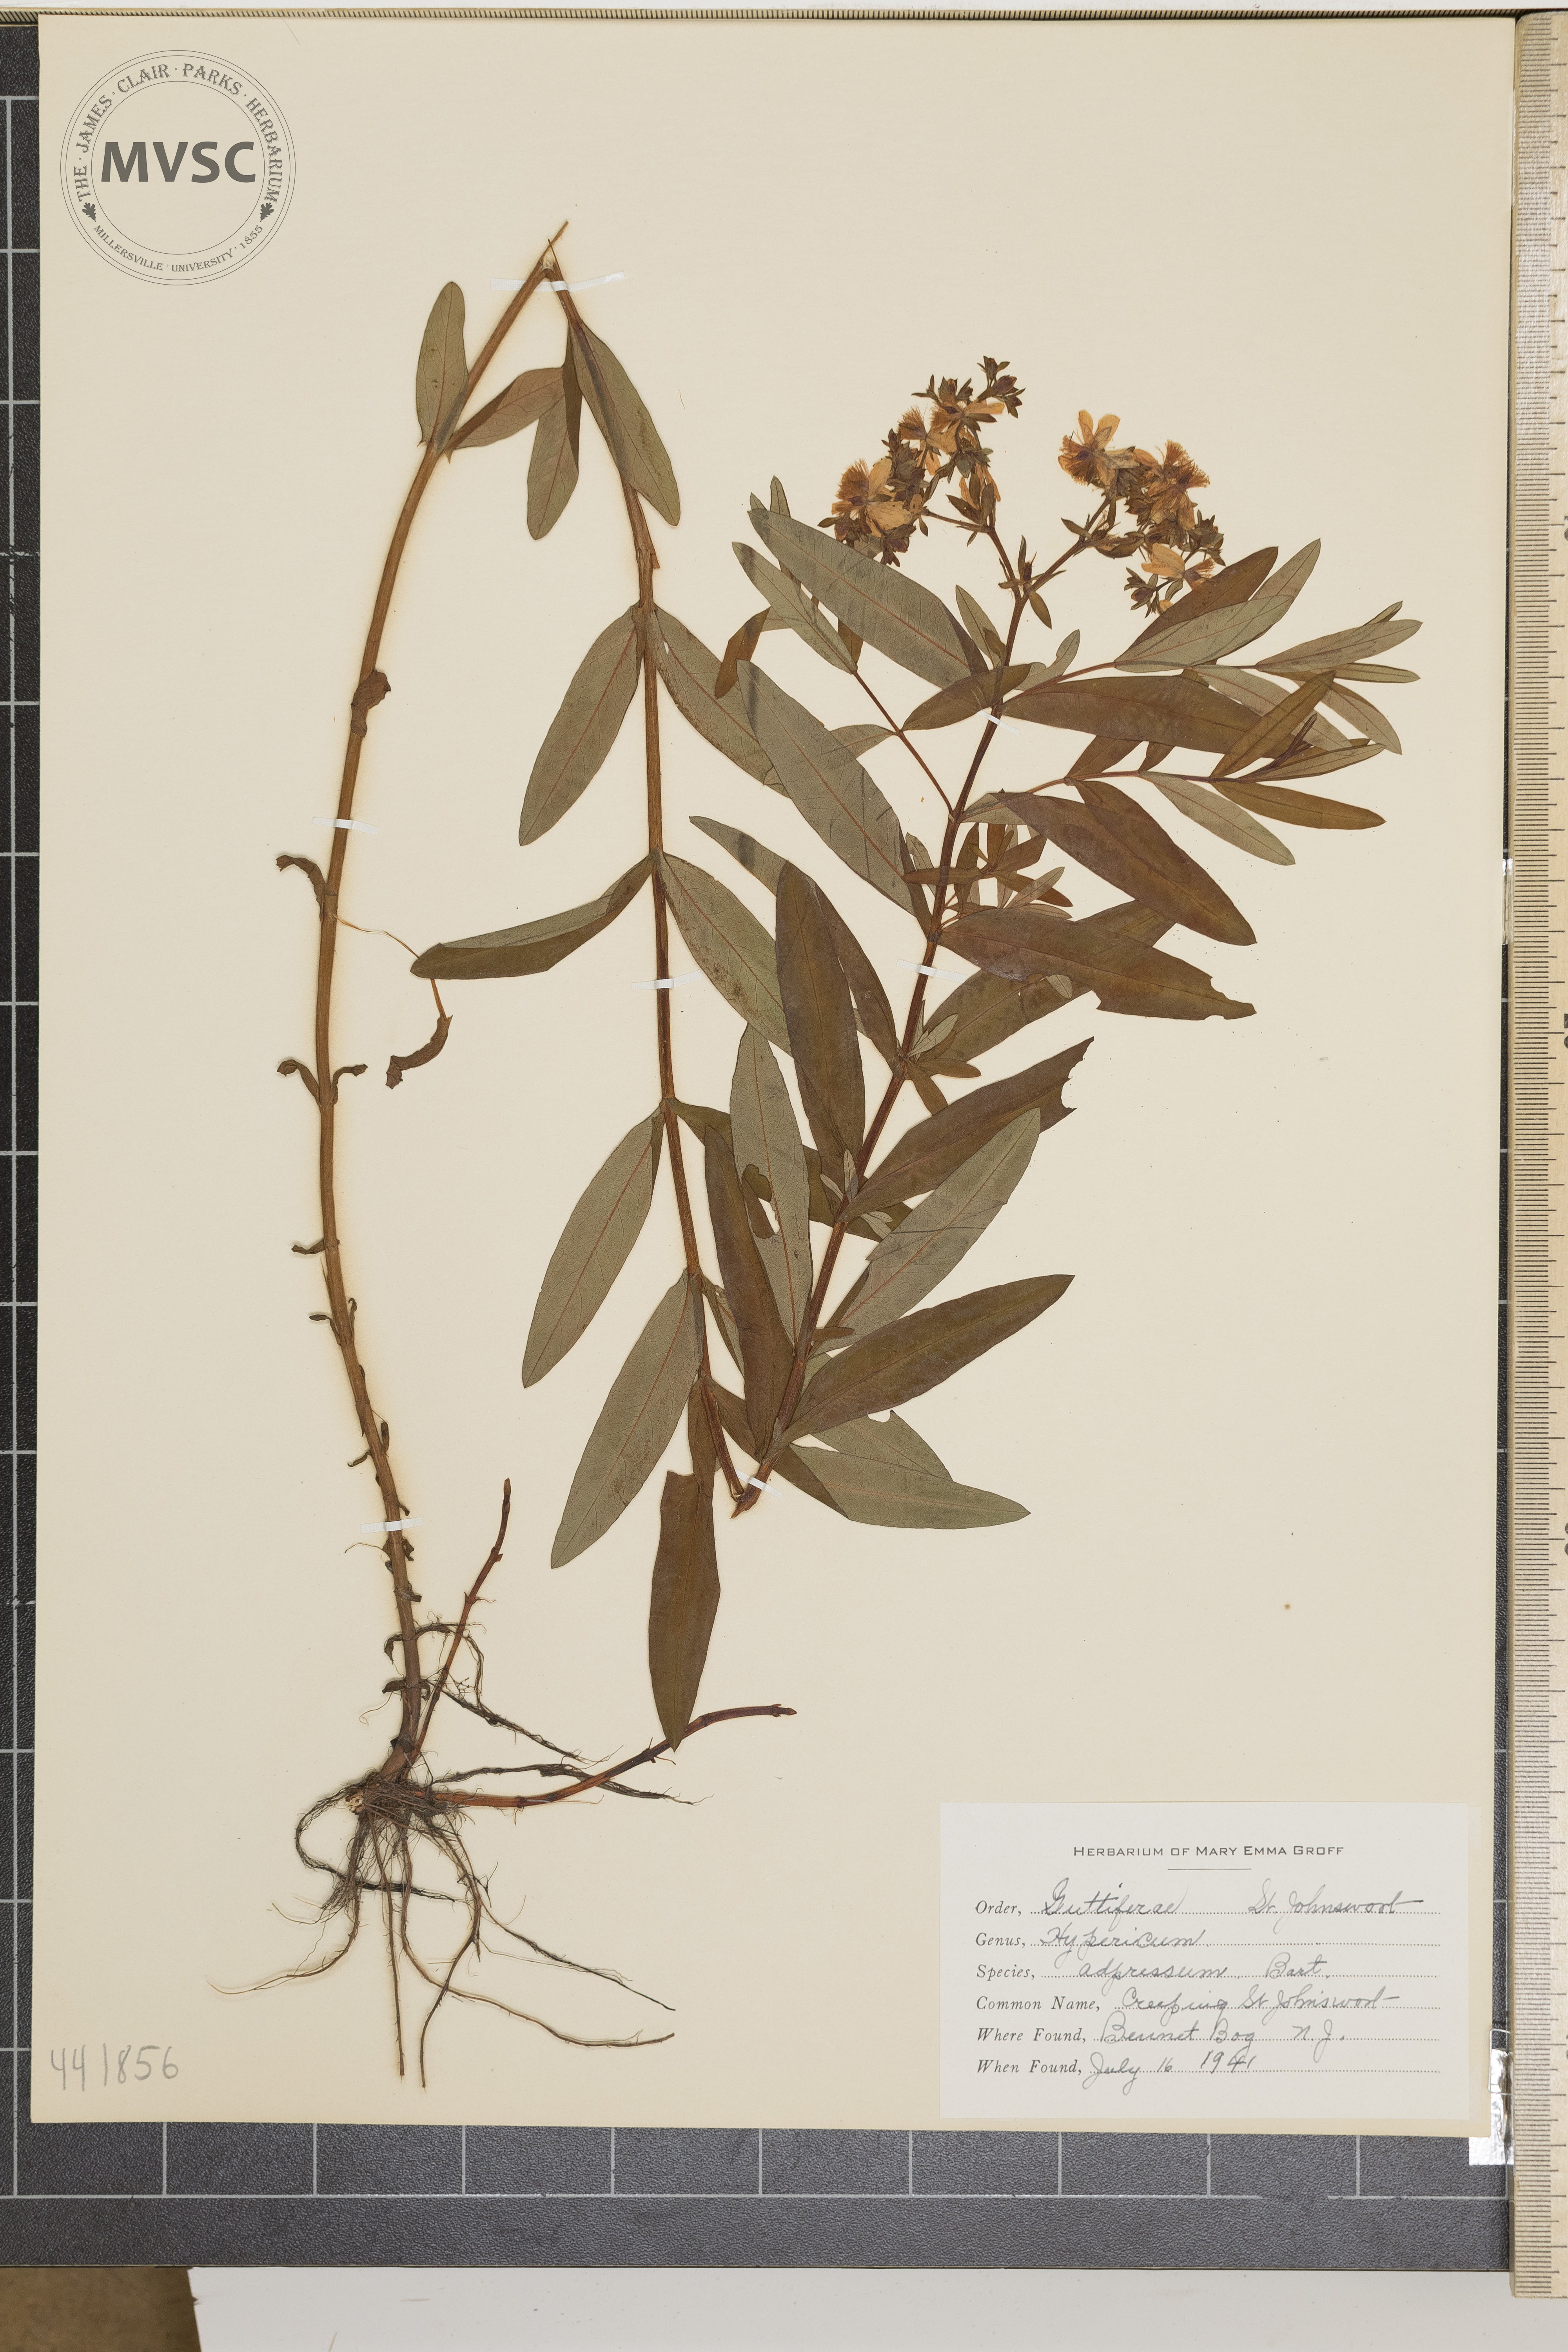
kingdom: Plantae
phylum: Tracheophyta
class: Magnoliopsida
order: Malpighiales
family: Hypericaceae
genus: Hypericum
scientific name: Hypericum canadense
